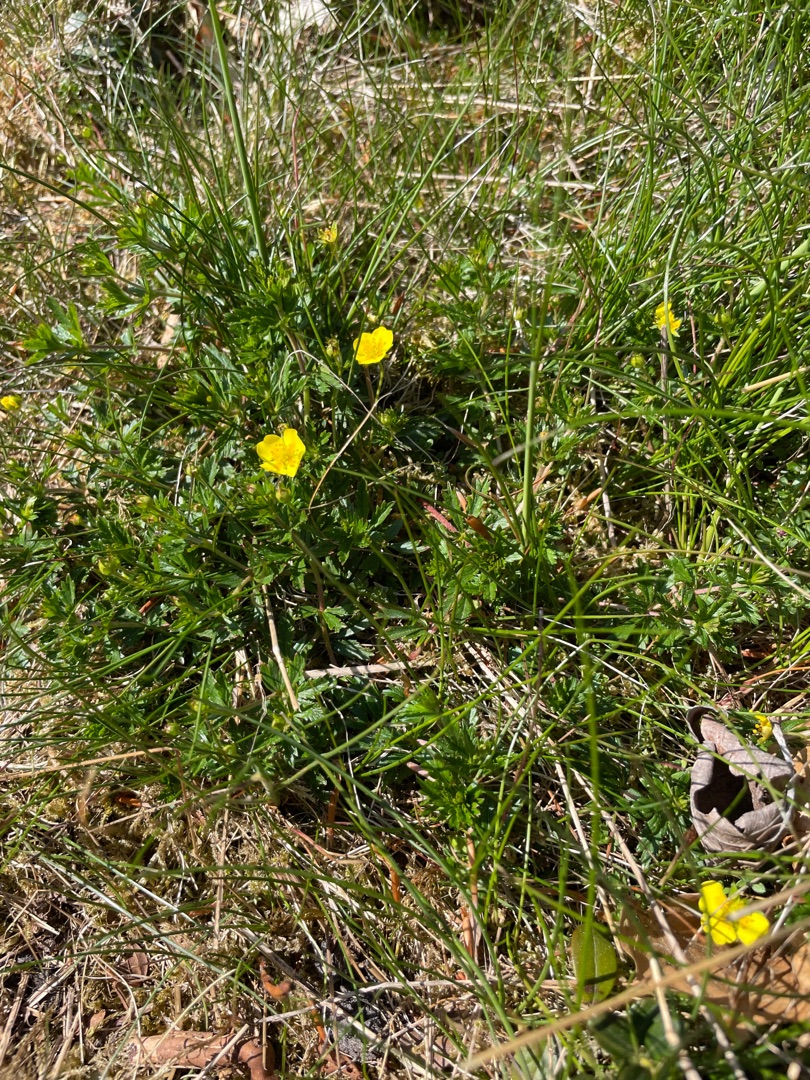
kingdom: Plantae
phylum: Tracheophyta
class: Magnoliopsida
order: Rosales
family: Rosaceae
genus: Potentilla
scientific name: Potentilla erecta
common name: Tormentil
